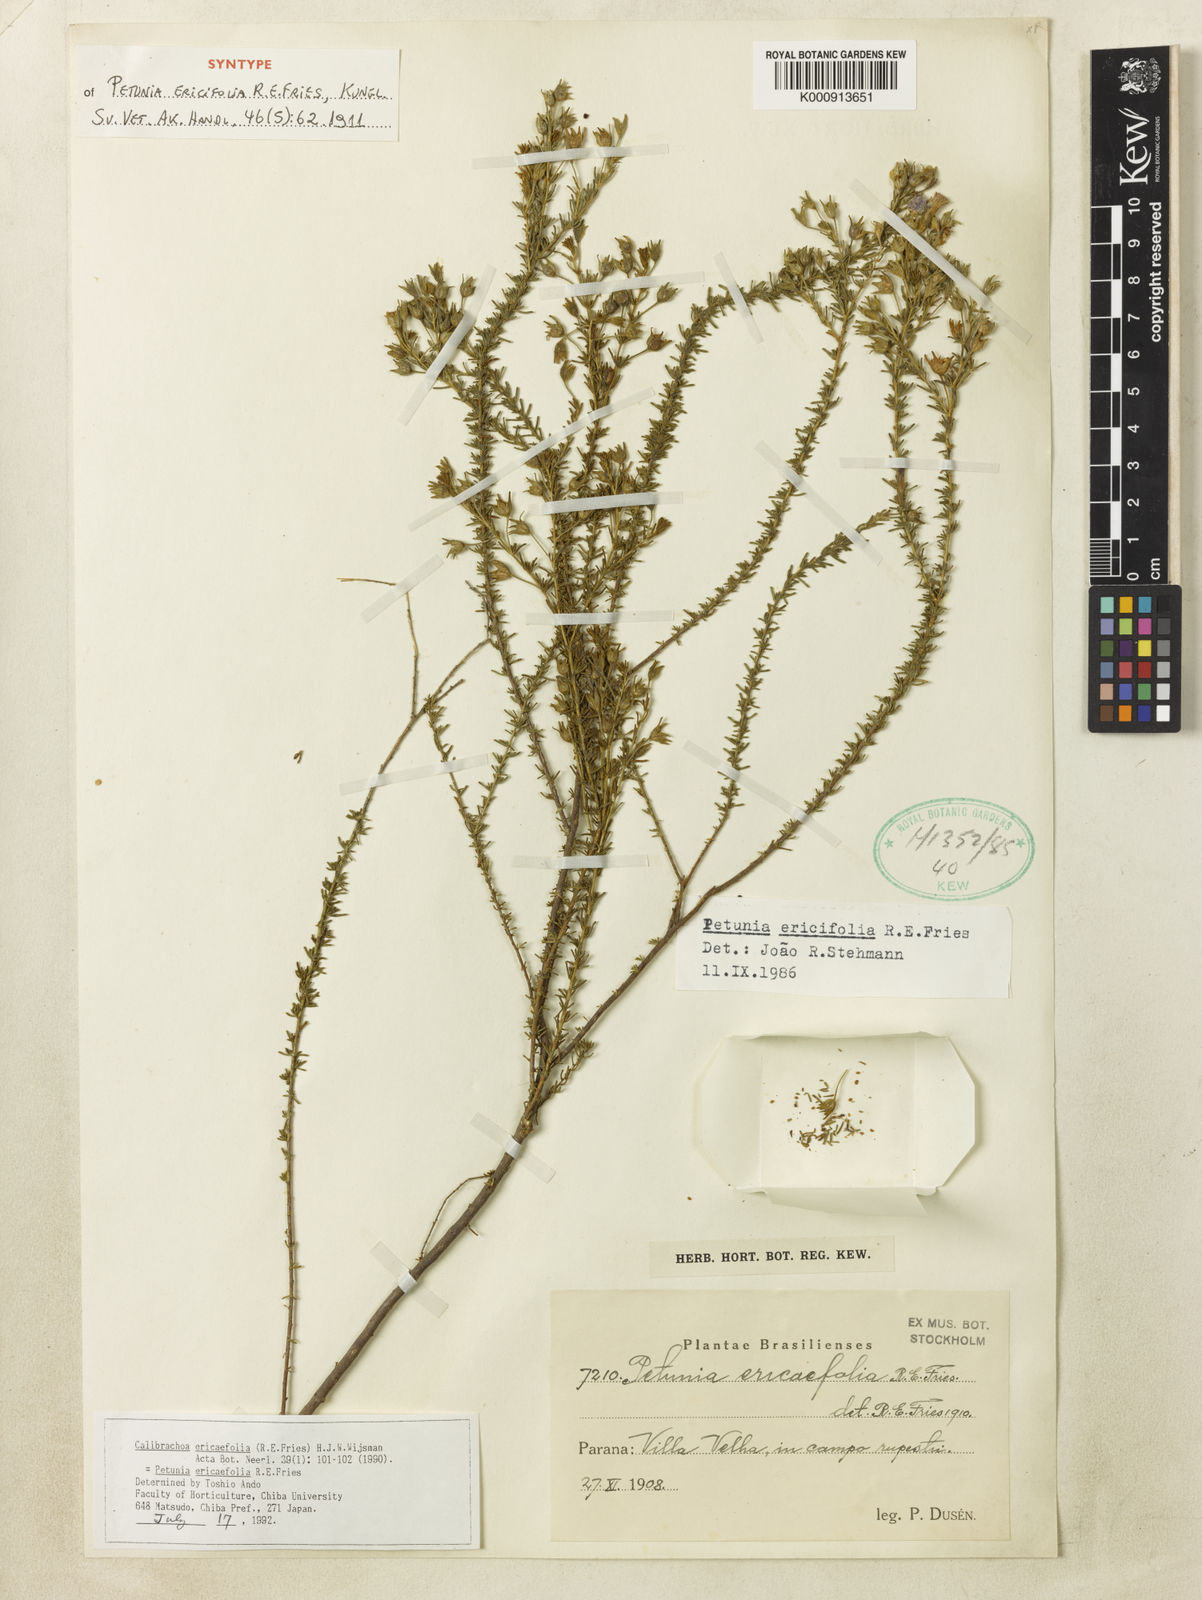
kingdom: Plantae
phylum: Tracheophyta
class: Magnoliopsida
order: Solanales
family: Solanaceae
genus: Calibrachoa
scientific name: Calibrachoa ericifolia
